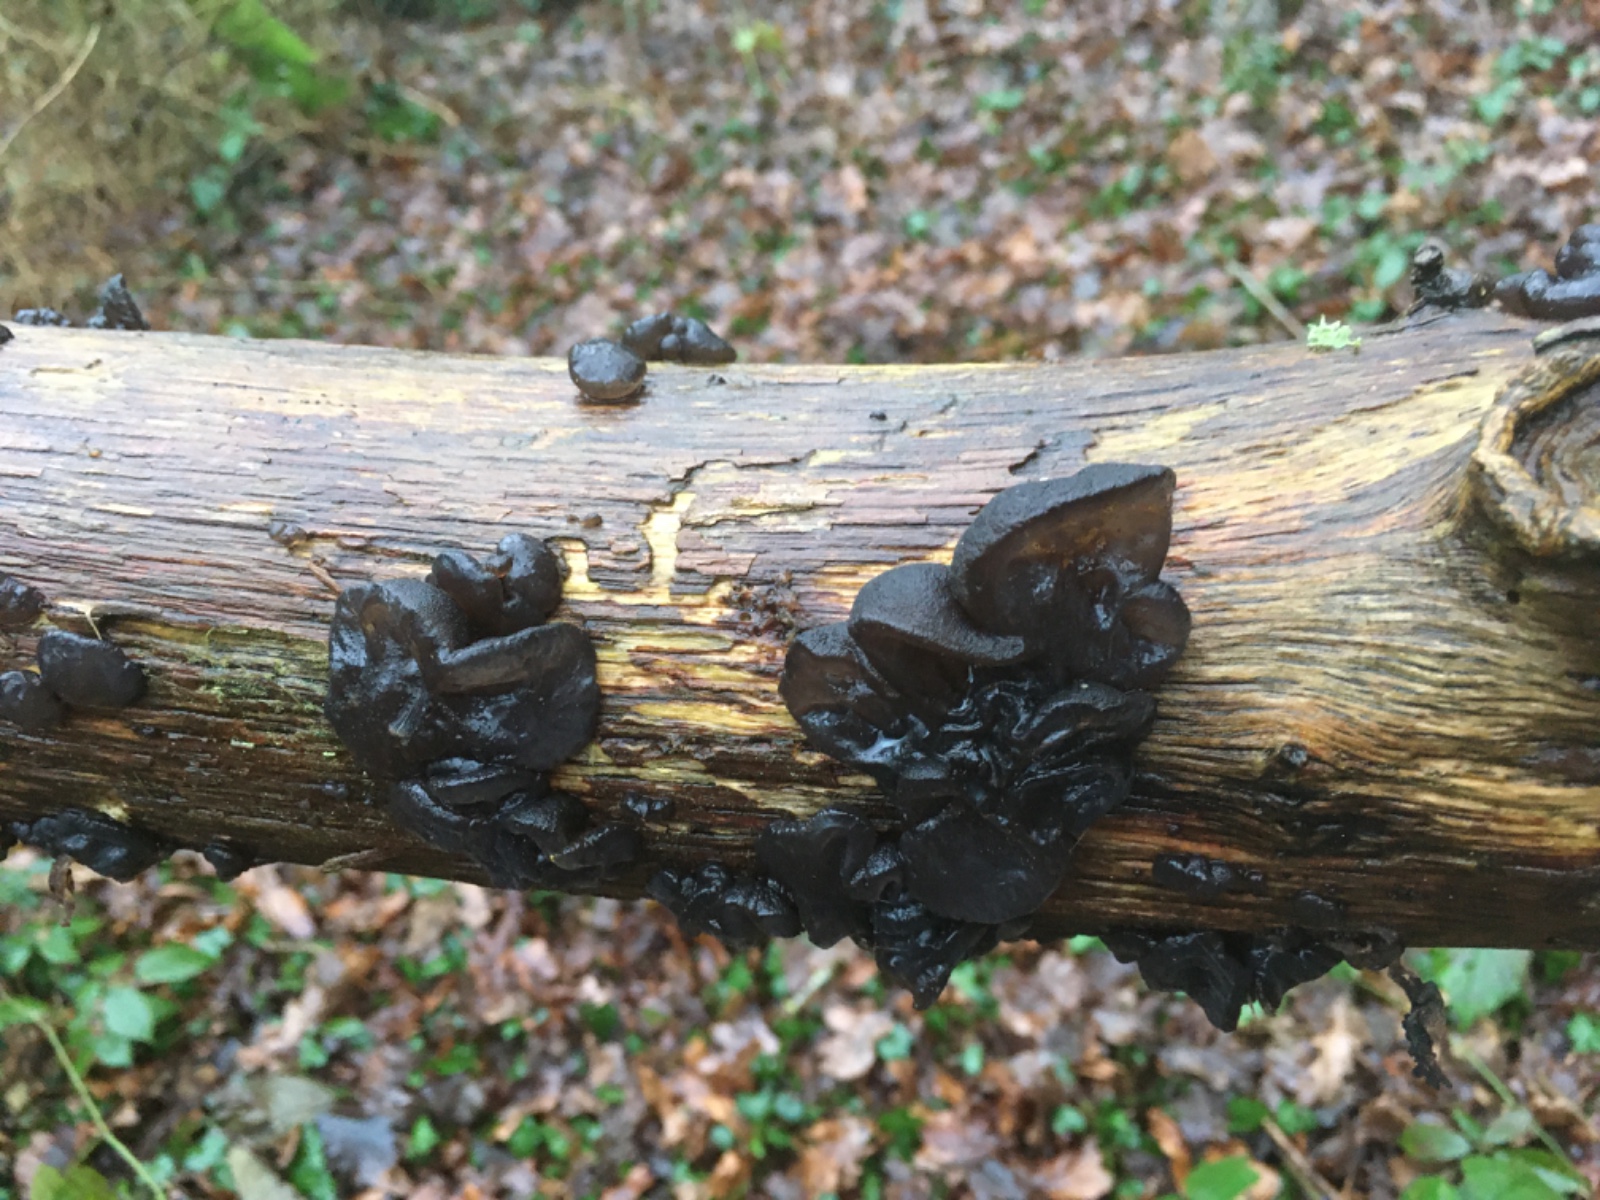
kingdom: Fungi
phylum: Basidiomycota
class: Agaricomycetes
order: Auriculariales
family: Auriculariaceae
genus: Exidia
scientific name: Exidia glandulosa
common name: ege-bævretop
